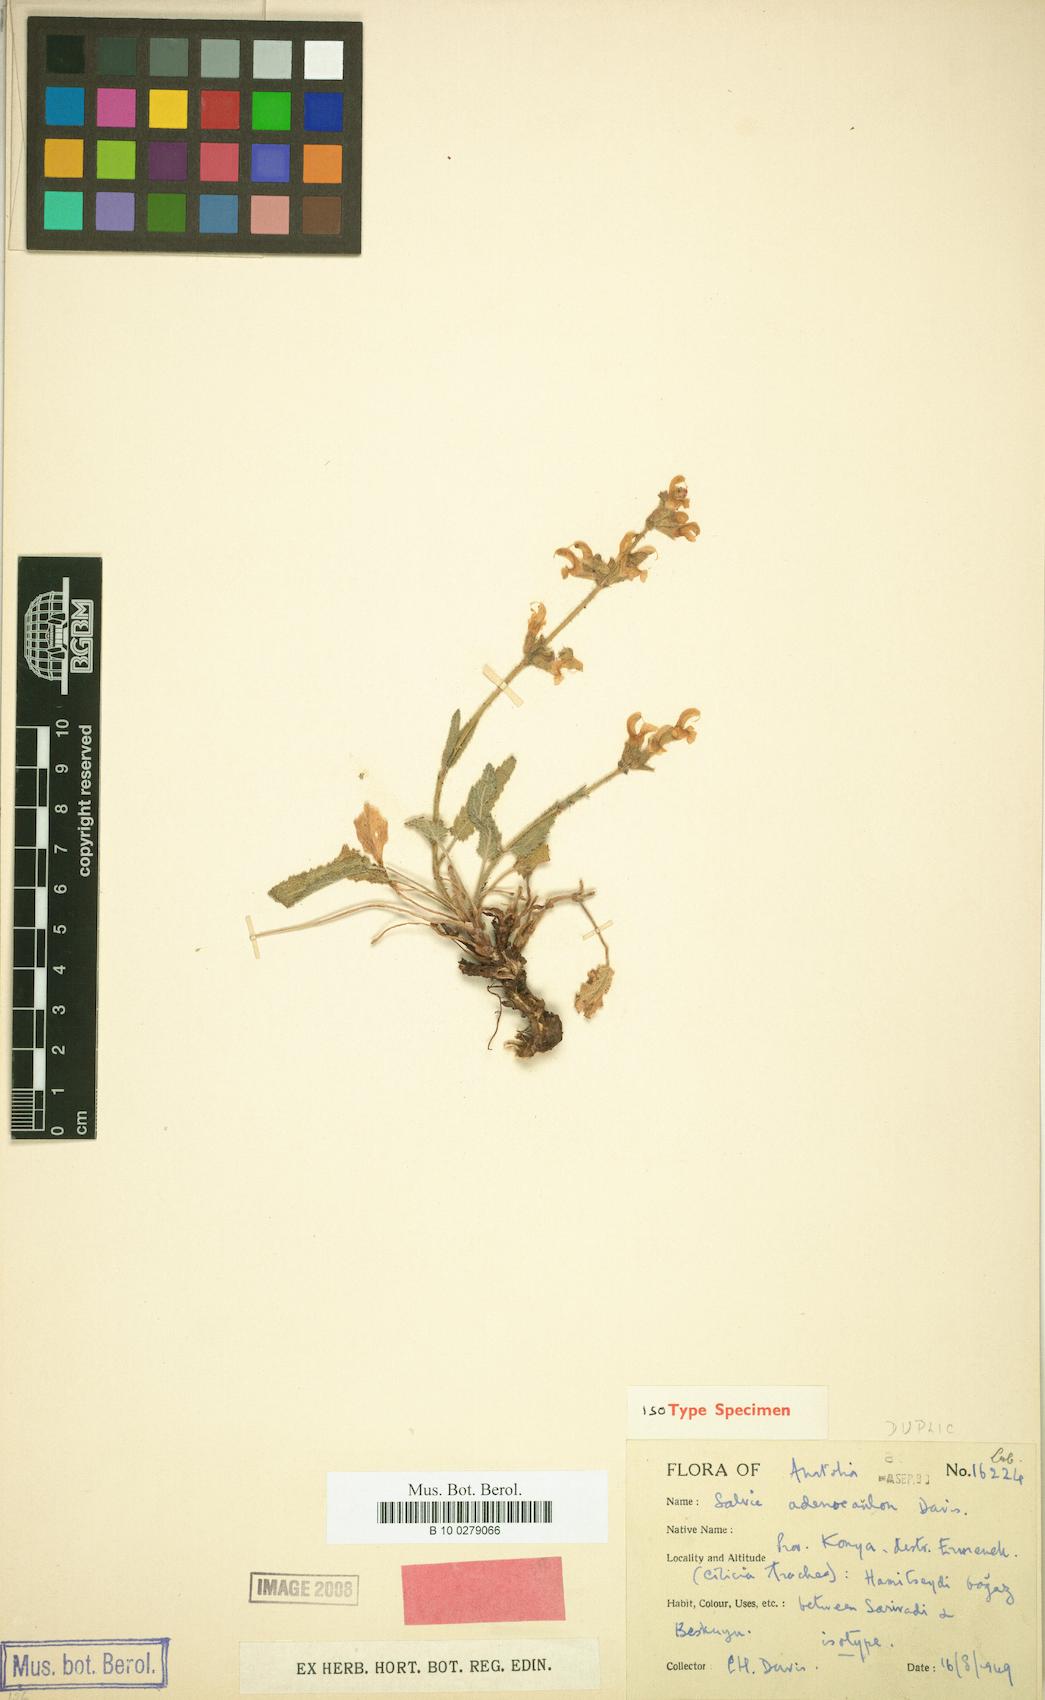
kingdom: Plantae
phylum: Tracheophyta
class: Magnoliopsida
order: Lamiales
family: Lamiaceae
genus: Salvia
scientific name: Salvia adenocaulon
